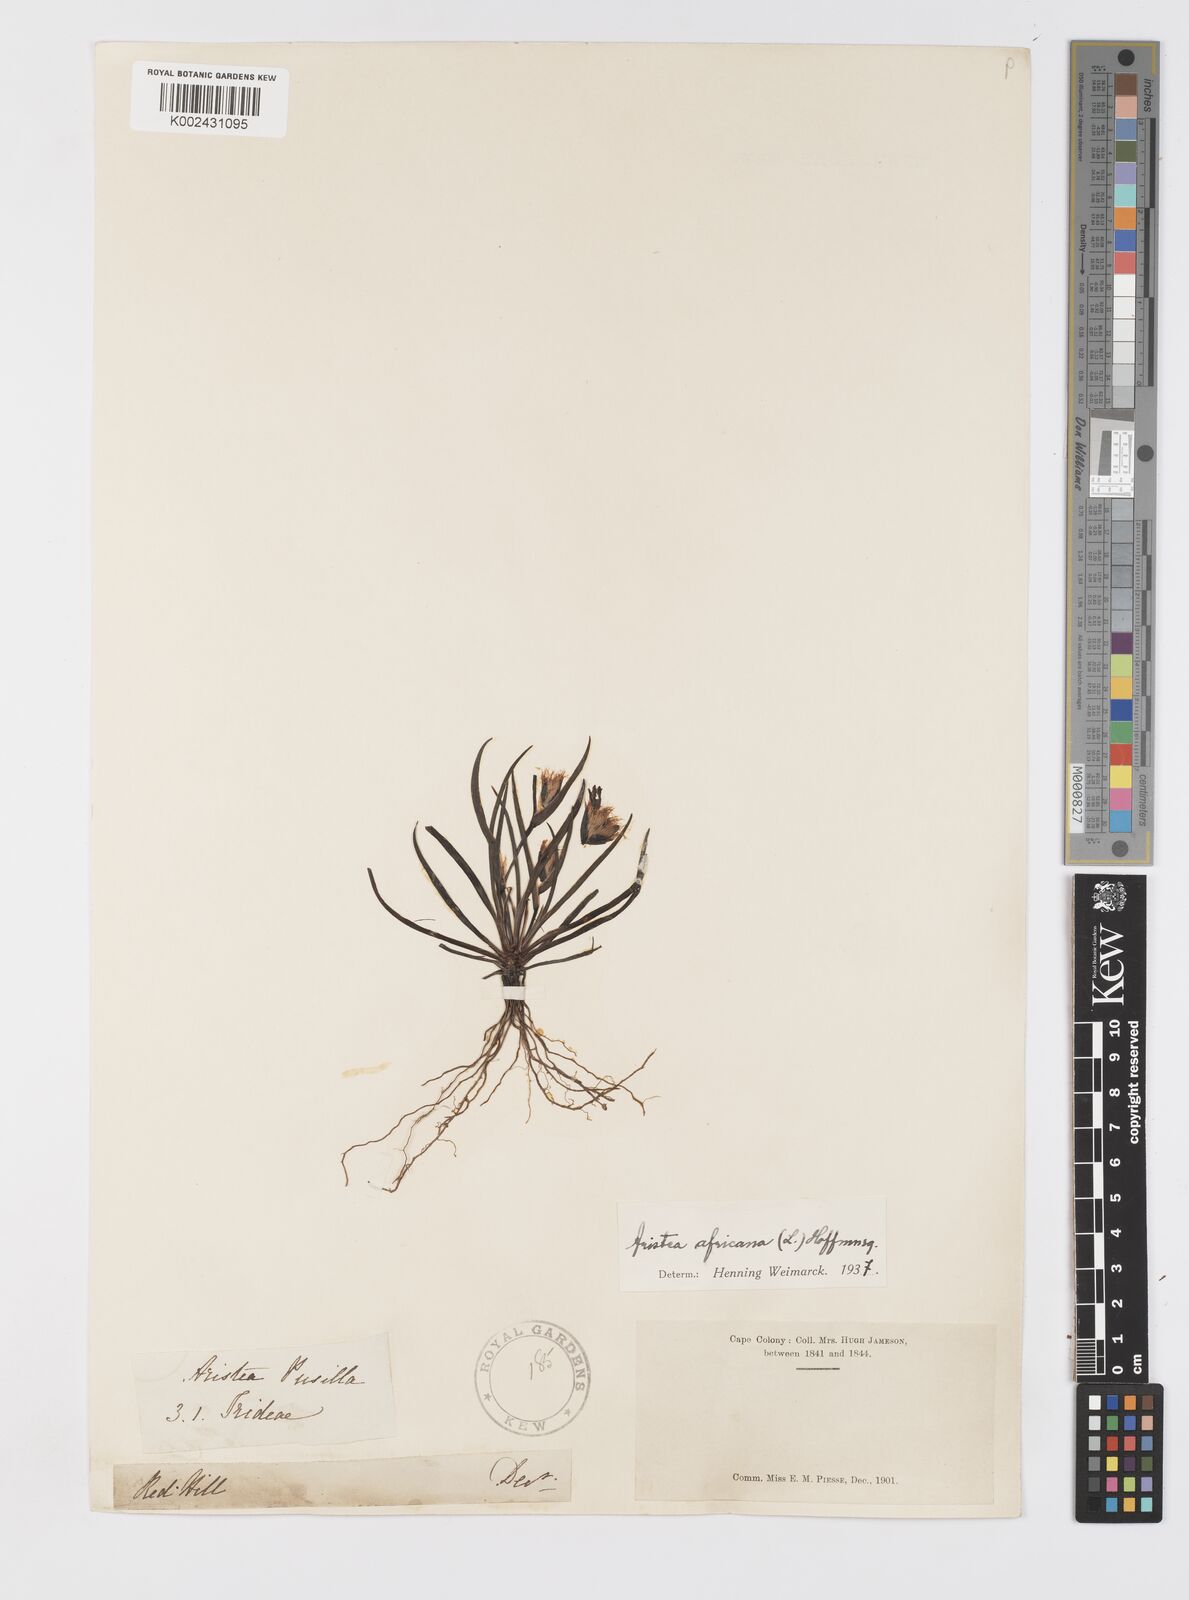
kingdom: Plantae
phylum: Tracheophyta
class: Liliopsida
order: Asparagales
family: Iridaceae
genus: Aristea
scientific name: Aristea africana
